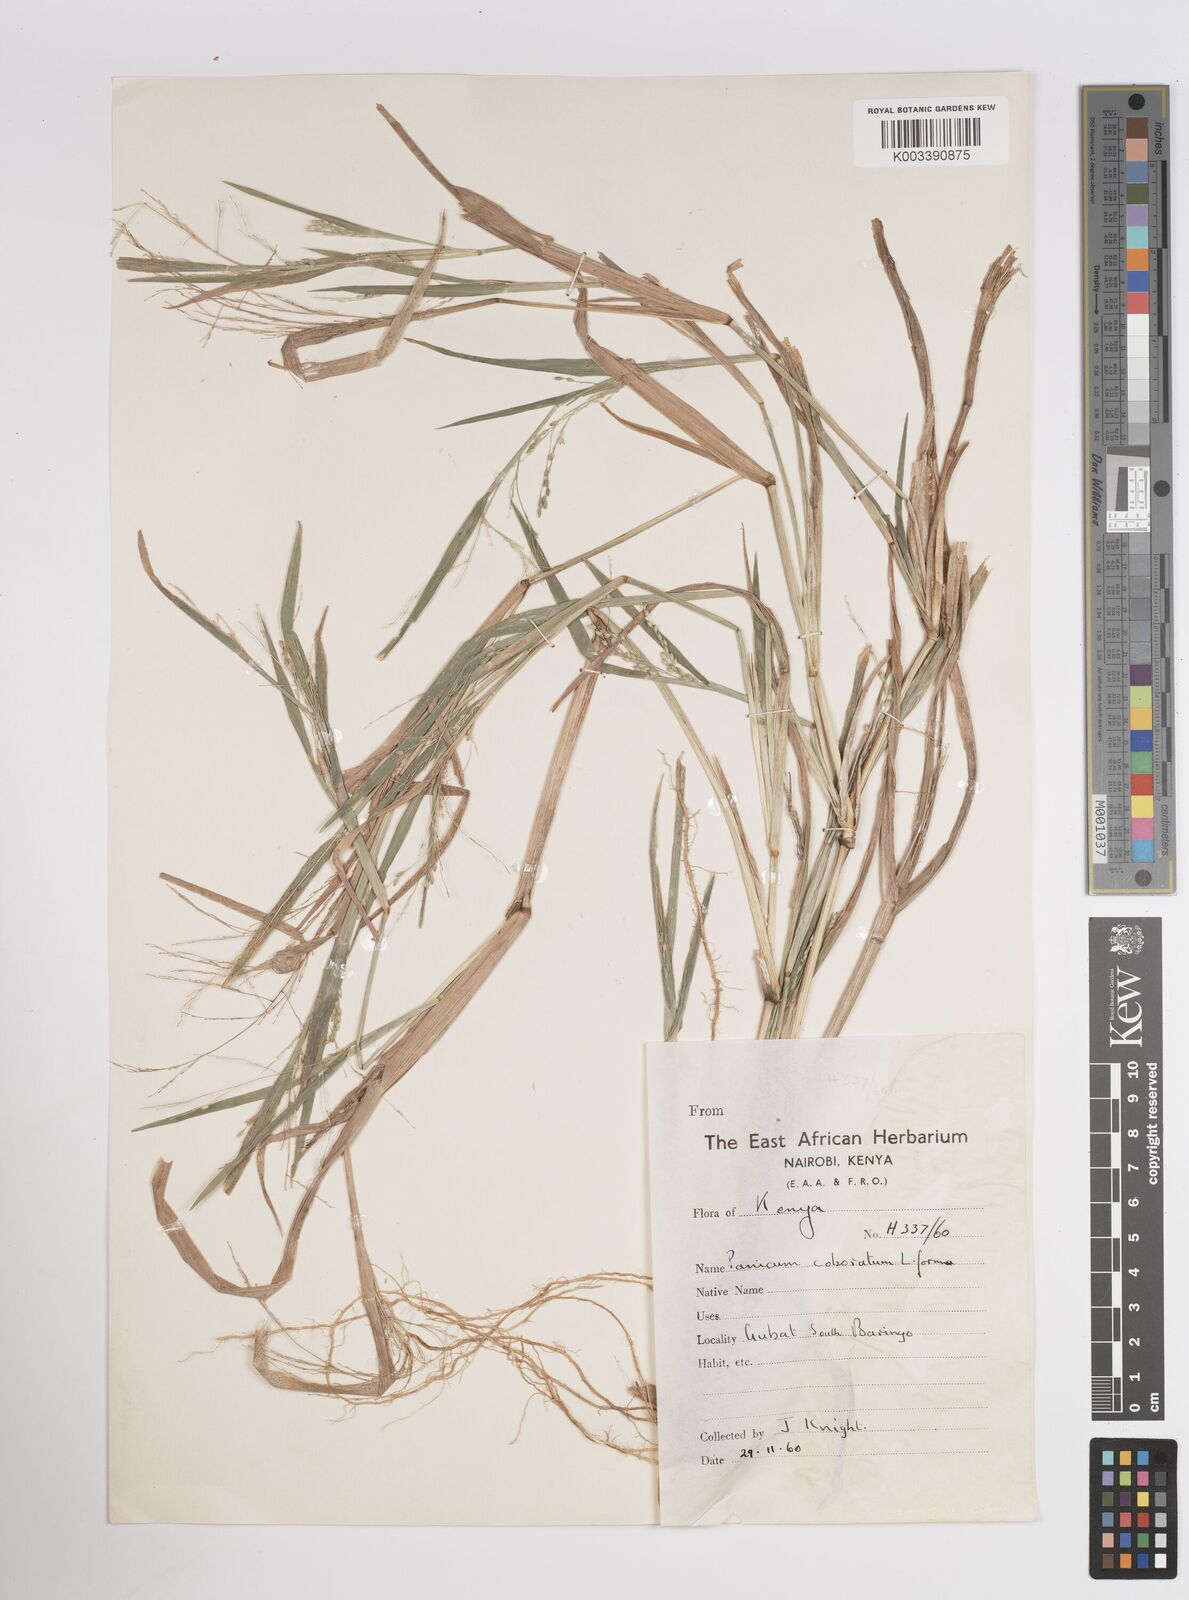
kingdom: Plantae
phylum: Tracheophyta
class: Liliopsida
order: Poales
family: Poaceae
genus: Panicum
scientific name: Panicum gilvum
